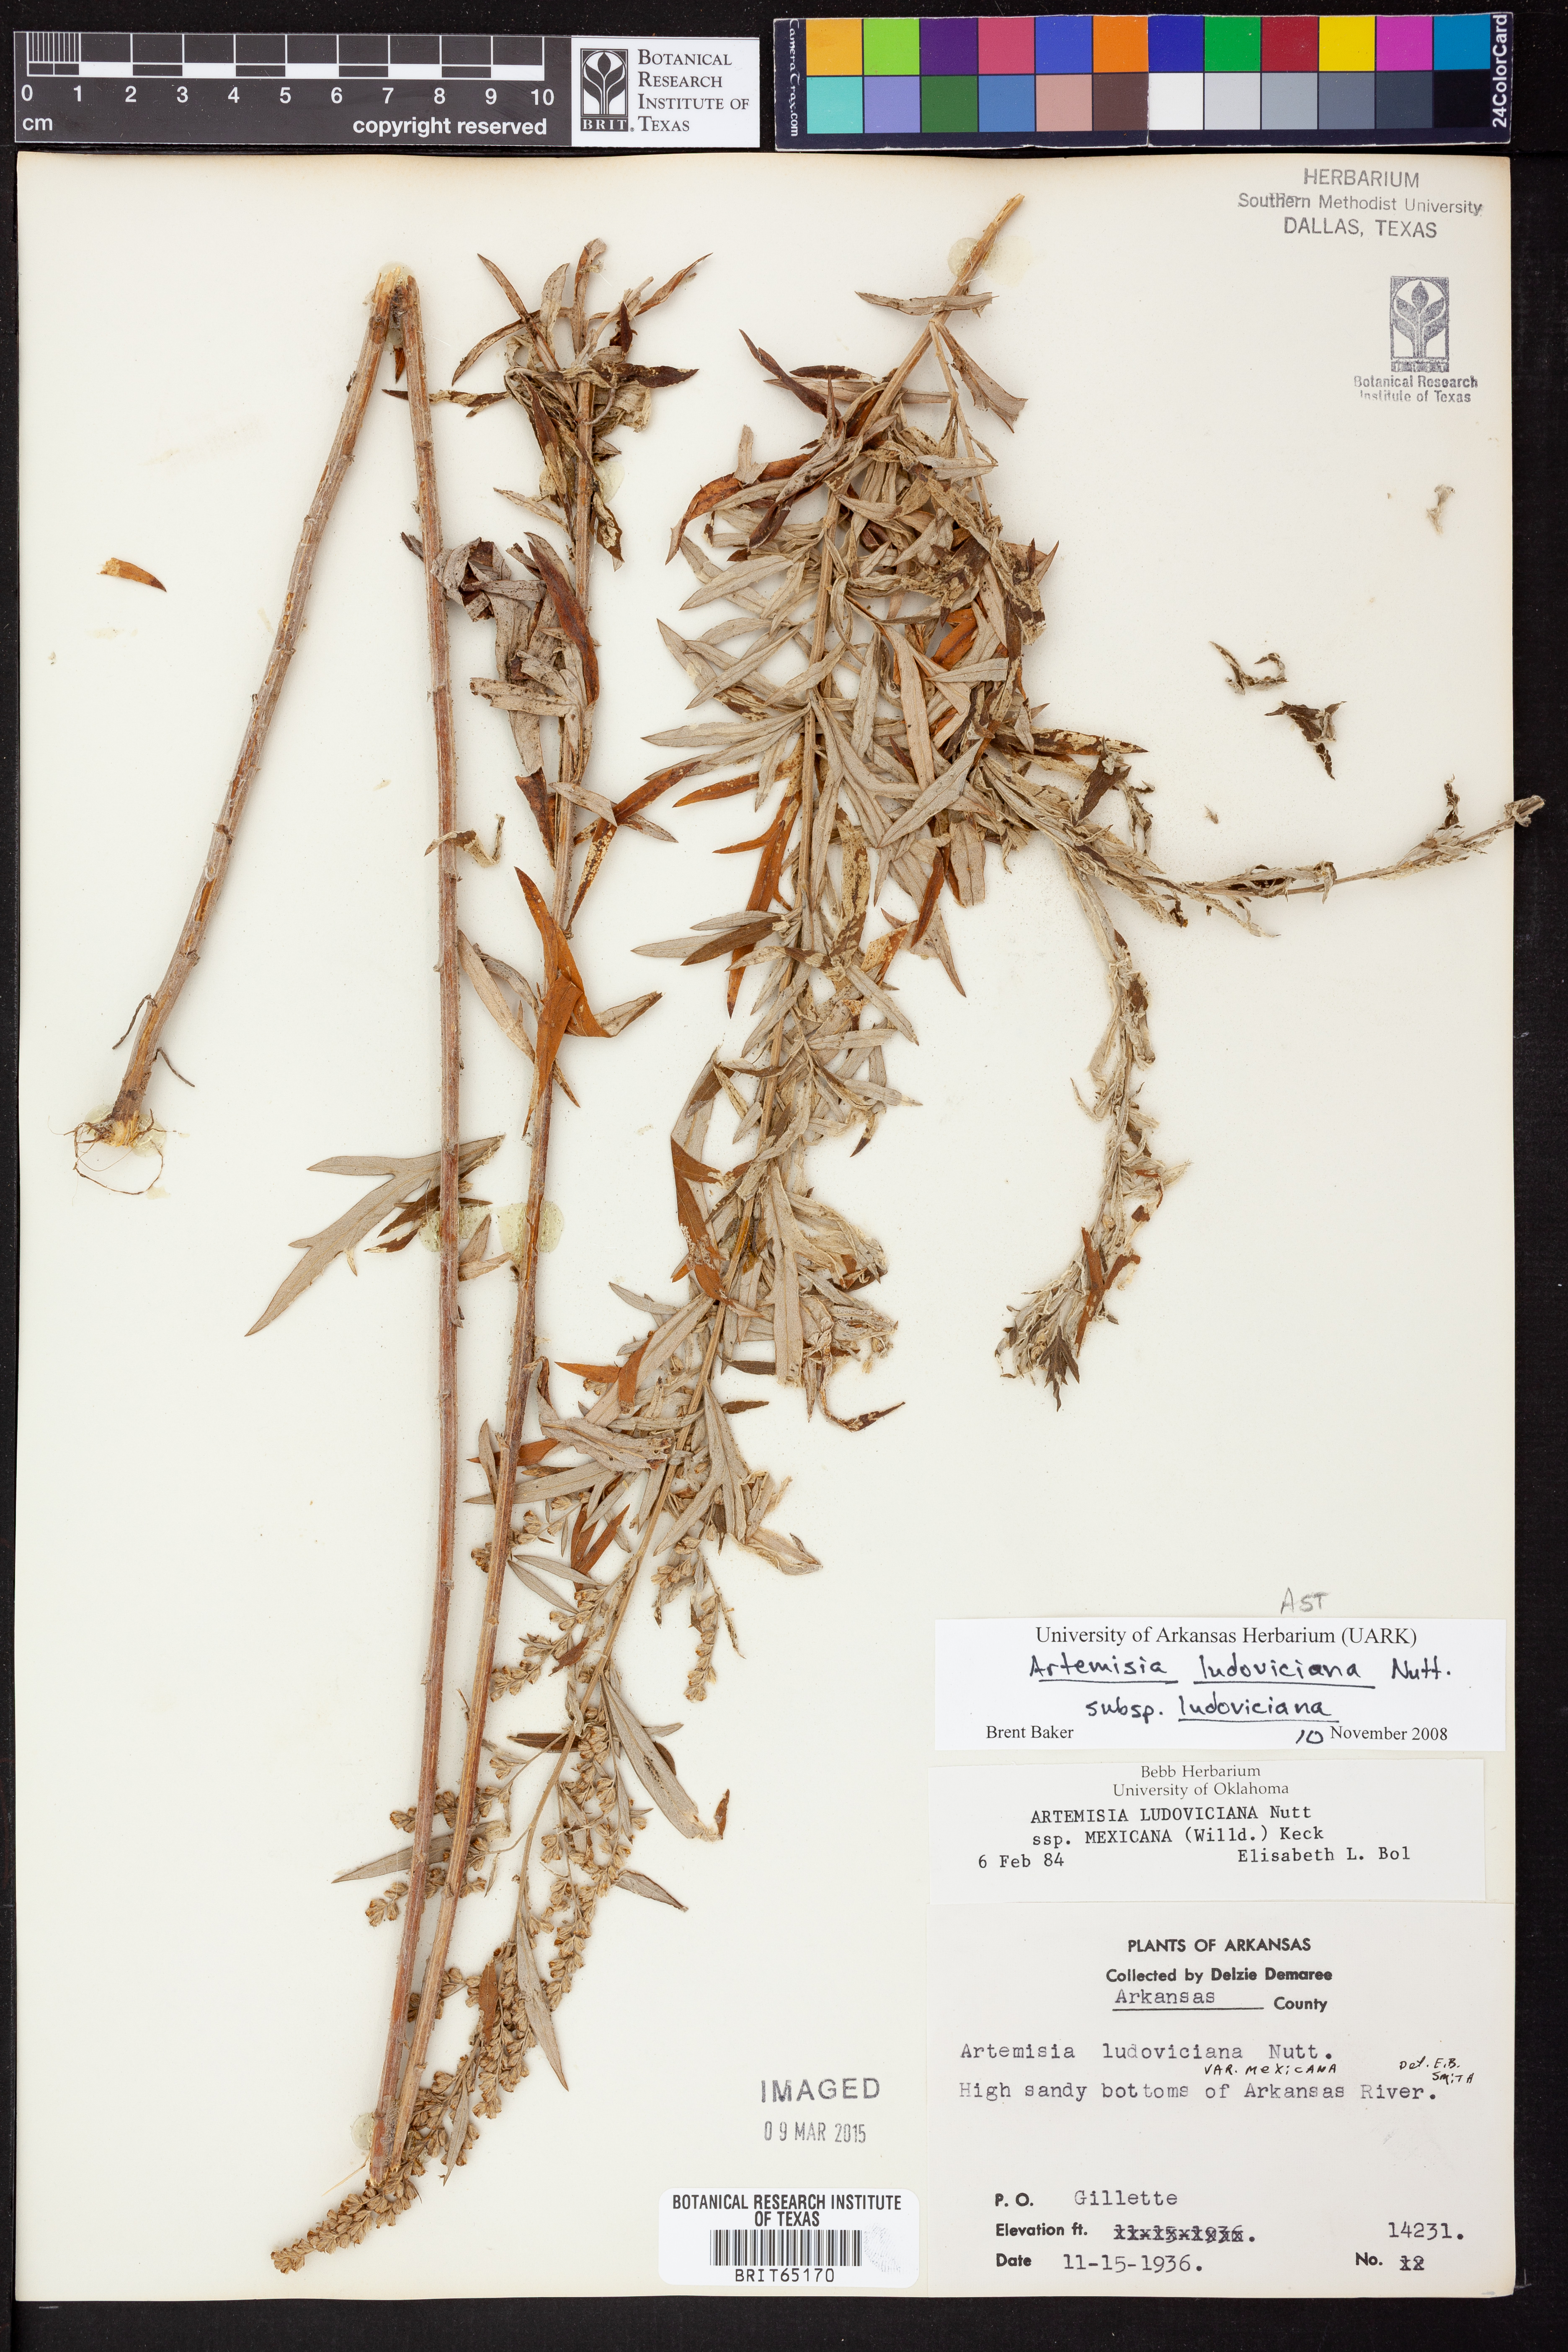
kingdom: Plantae
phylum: Tracheophyta
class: Magnoliopsida
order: Asterales
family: Asteraceae
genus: Artemisia
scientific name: Artemisia ludoviciana
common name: Western mugwort
